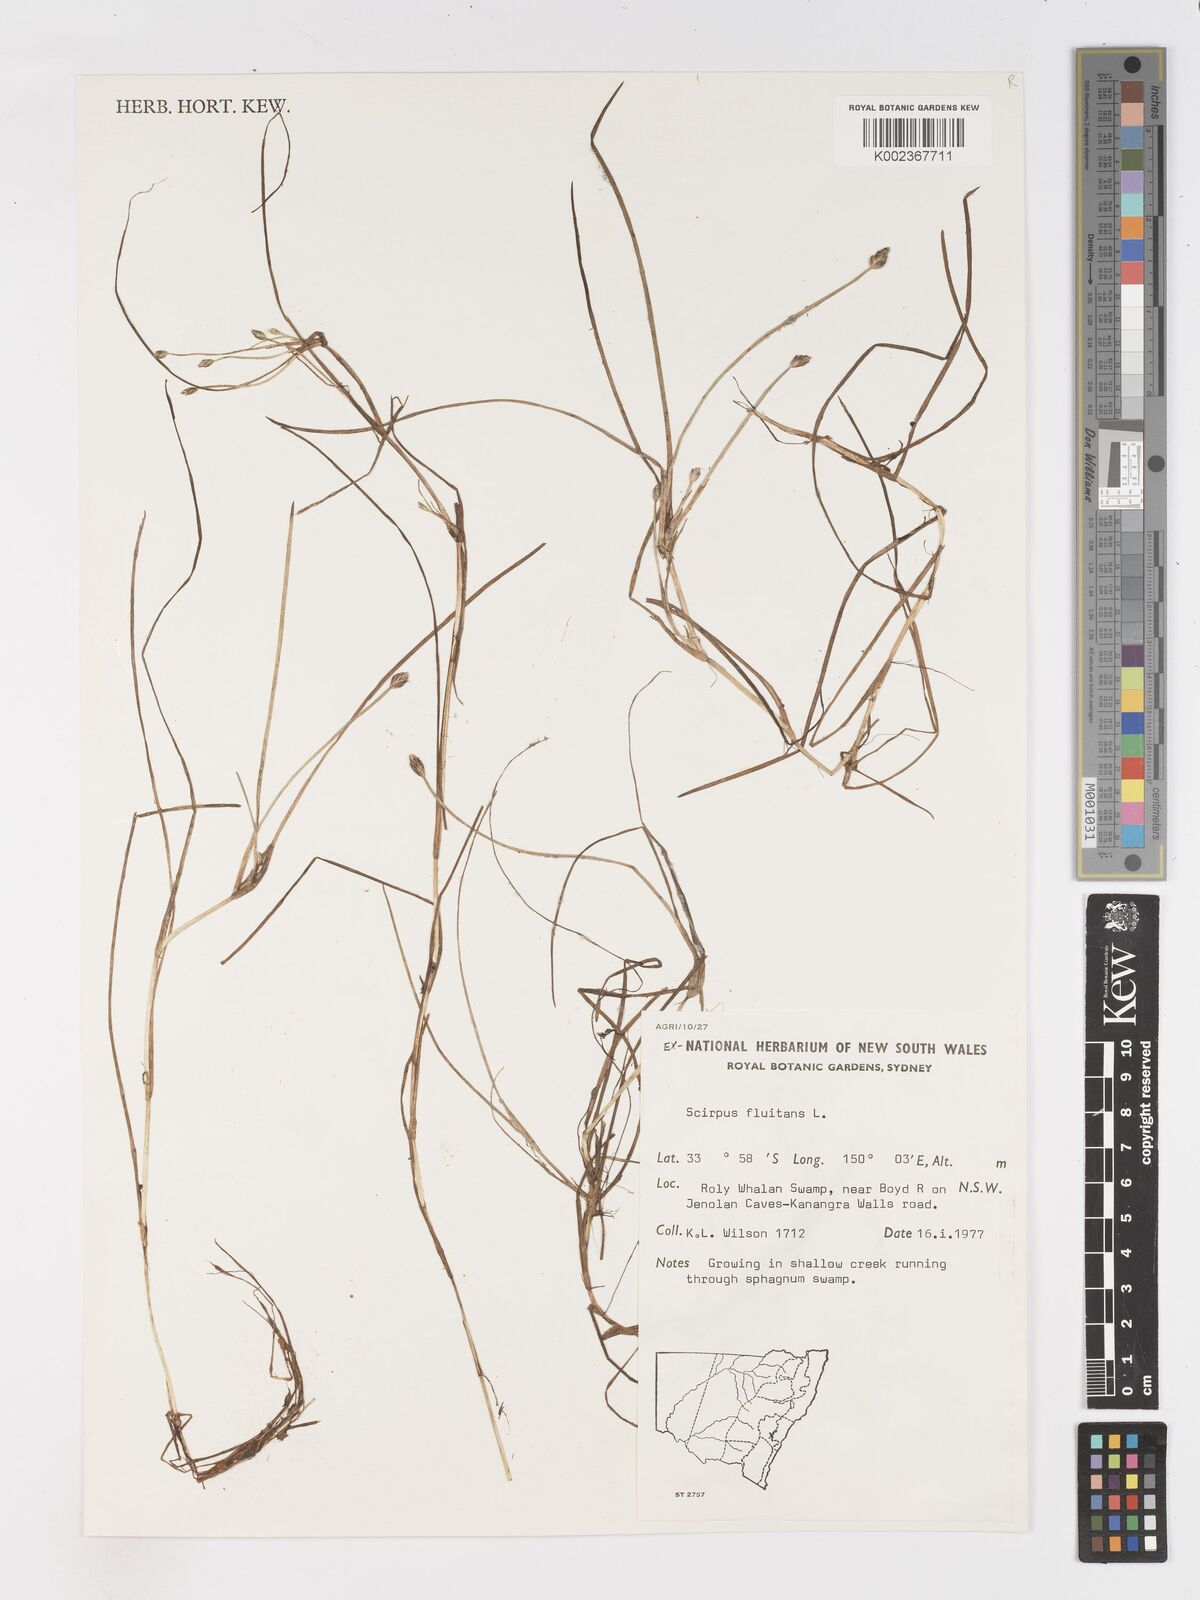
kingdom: Plantae
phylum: Tracheophyta
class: Liliopsida
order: Poales
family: Cyperaceae
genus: Isolepis
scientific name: Isolepis crassiuscula
